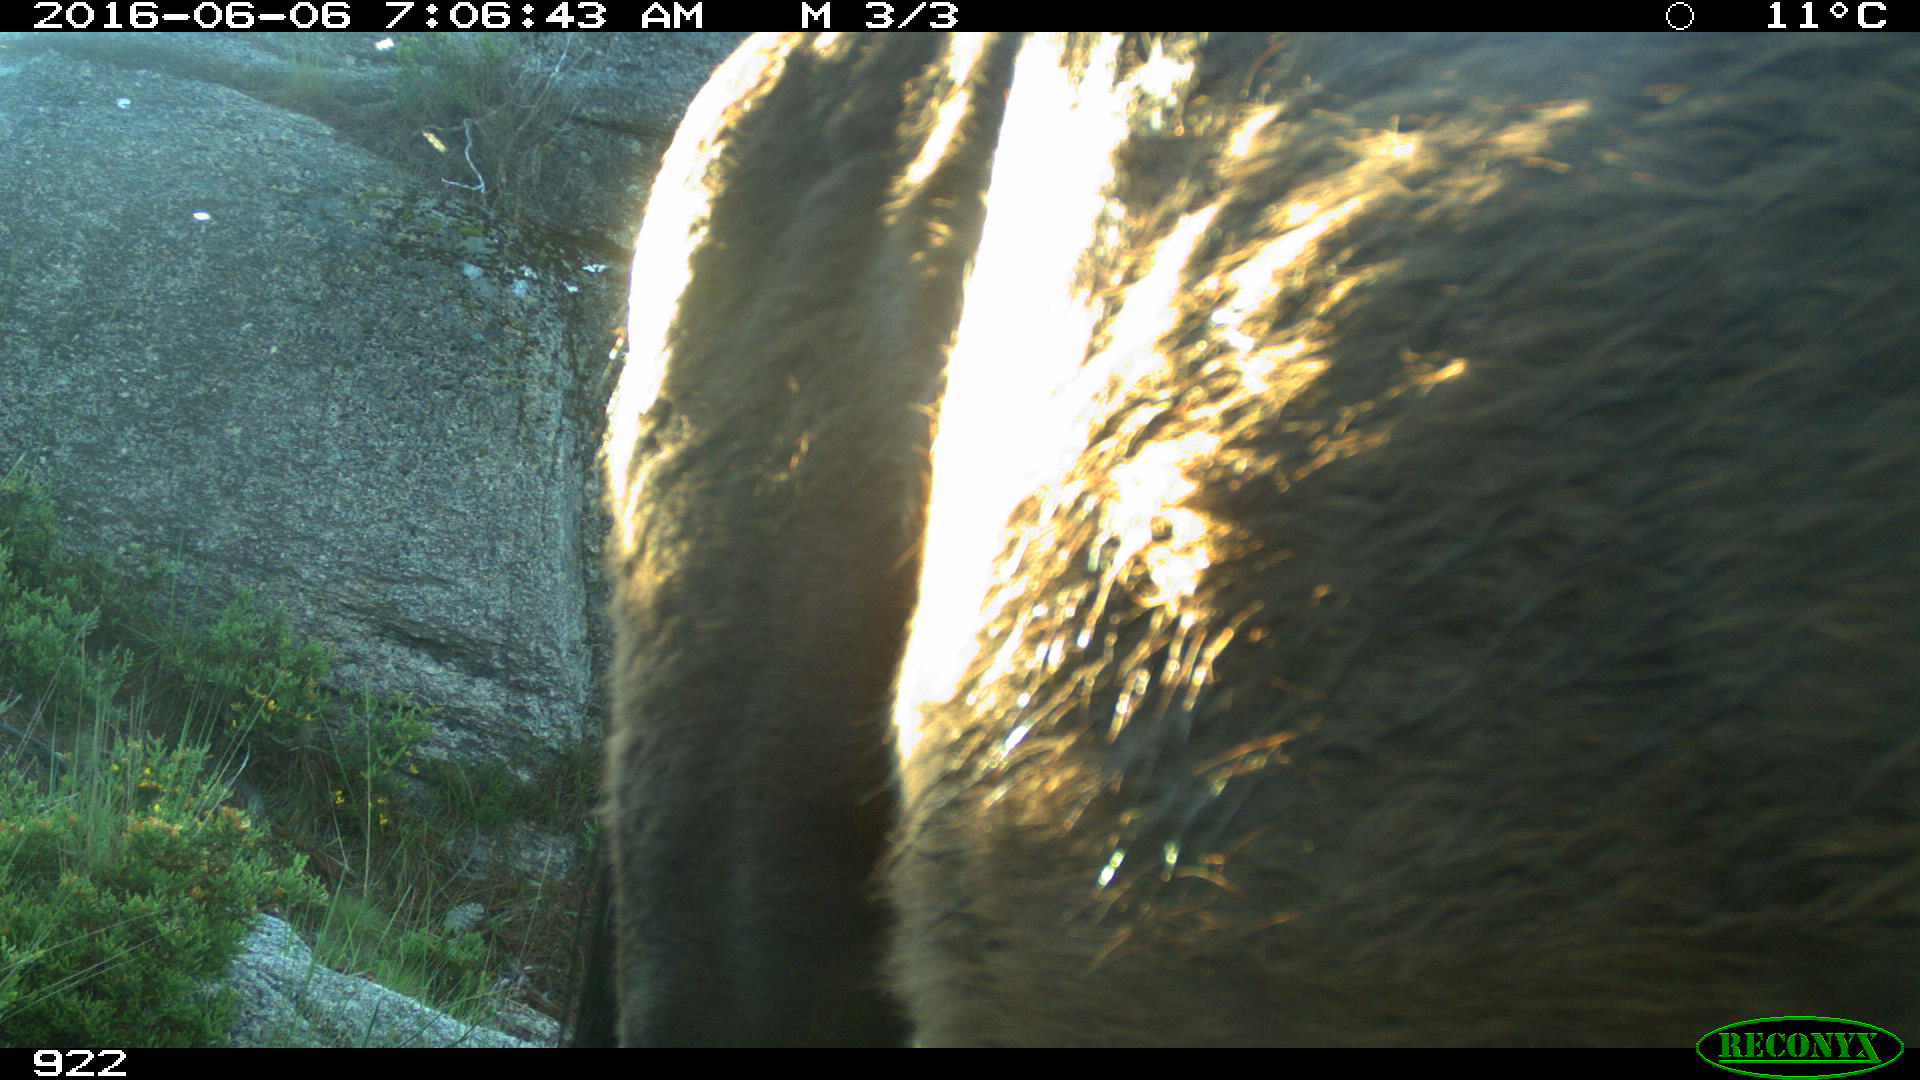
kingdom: Animalia
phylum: Chordata
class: Mammalia
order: Perissodactyla
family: Equidae
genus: Equus
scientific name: Equus caballus
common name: Horse
